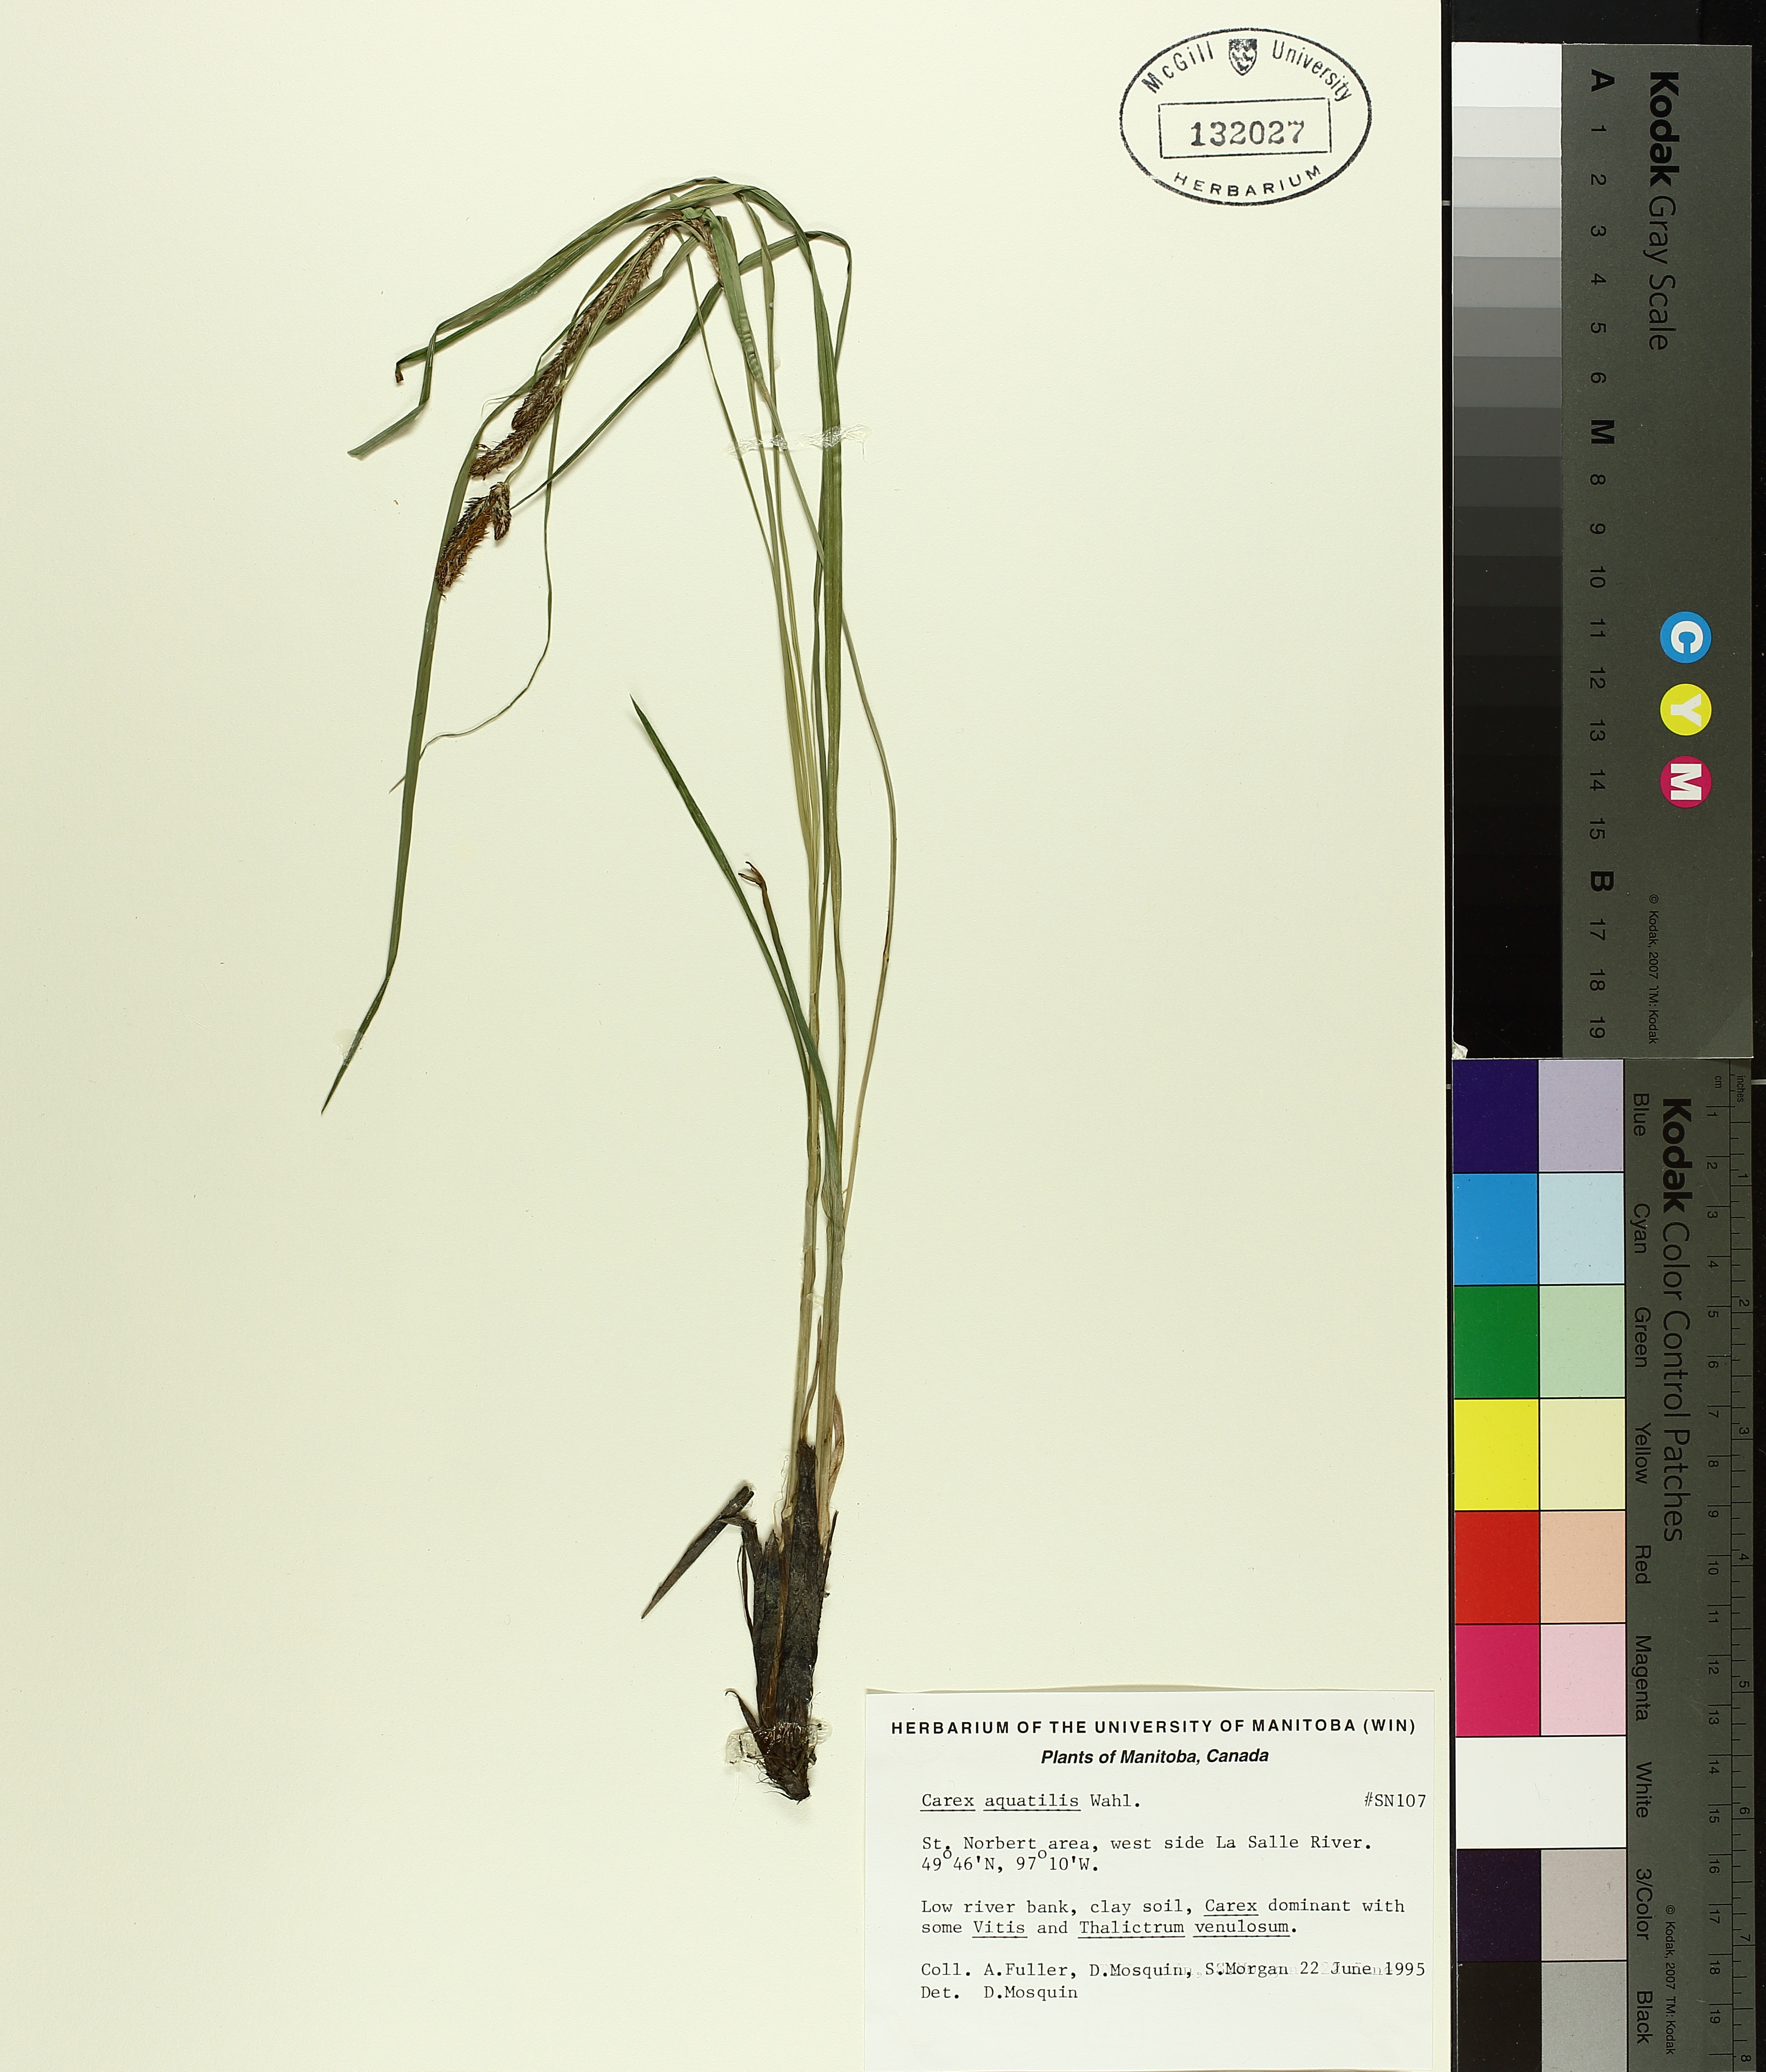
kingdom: Plantae
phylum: Tracheophyta
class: Liliopsida
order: Poales
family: Cyperaceae
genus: Carex
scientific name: Carex aquatilis
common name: Water sedge
